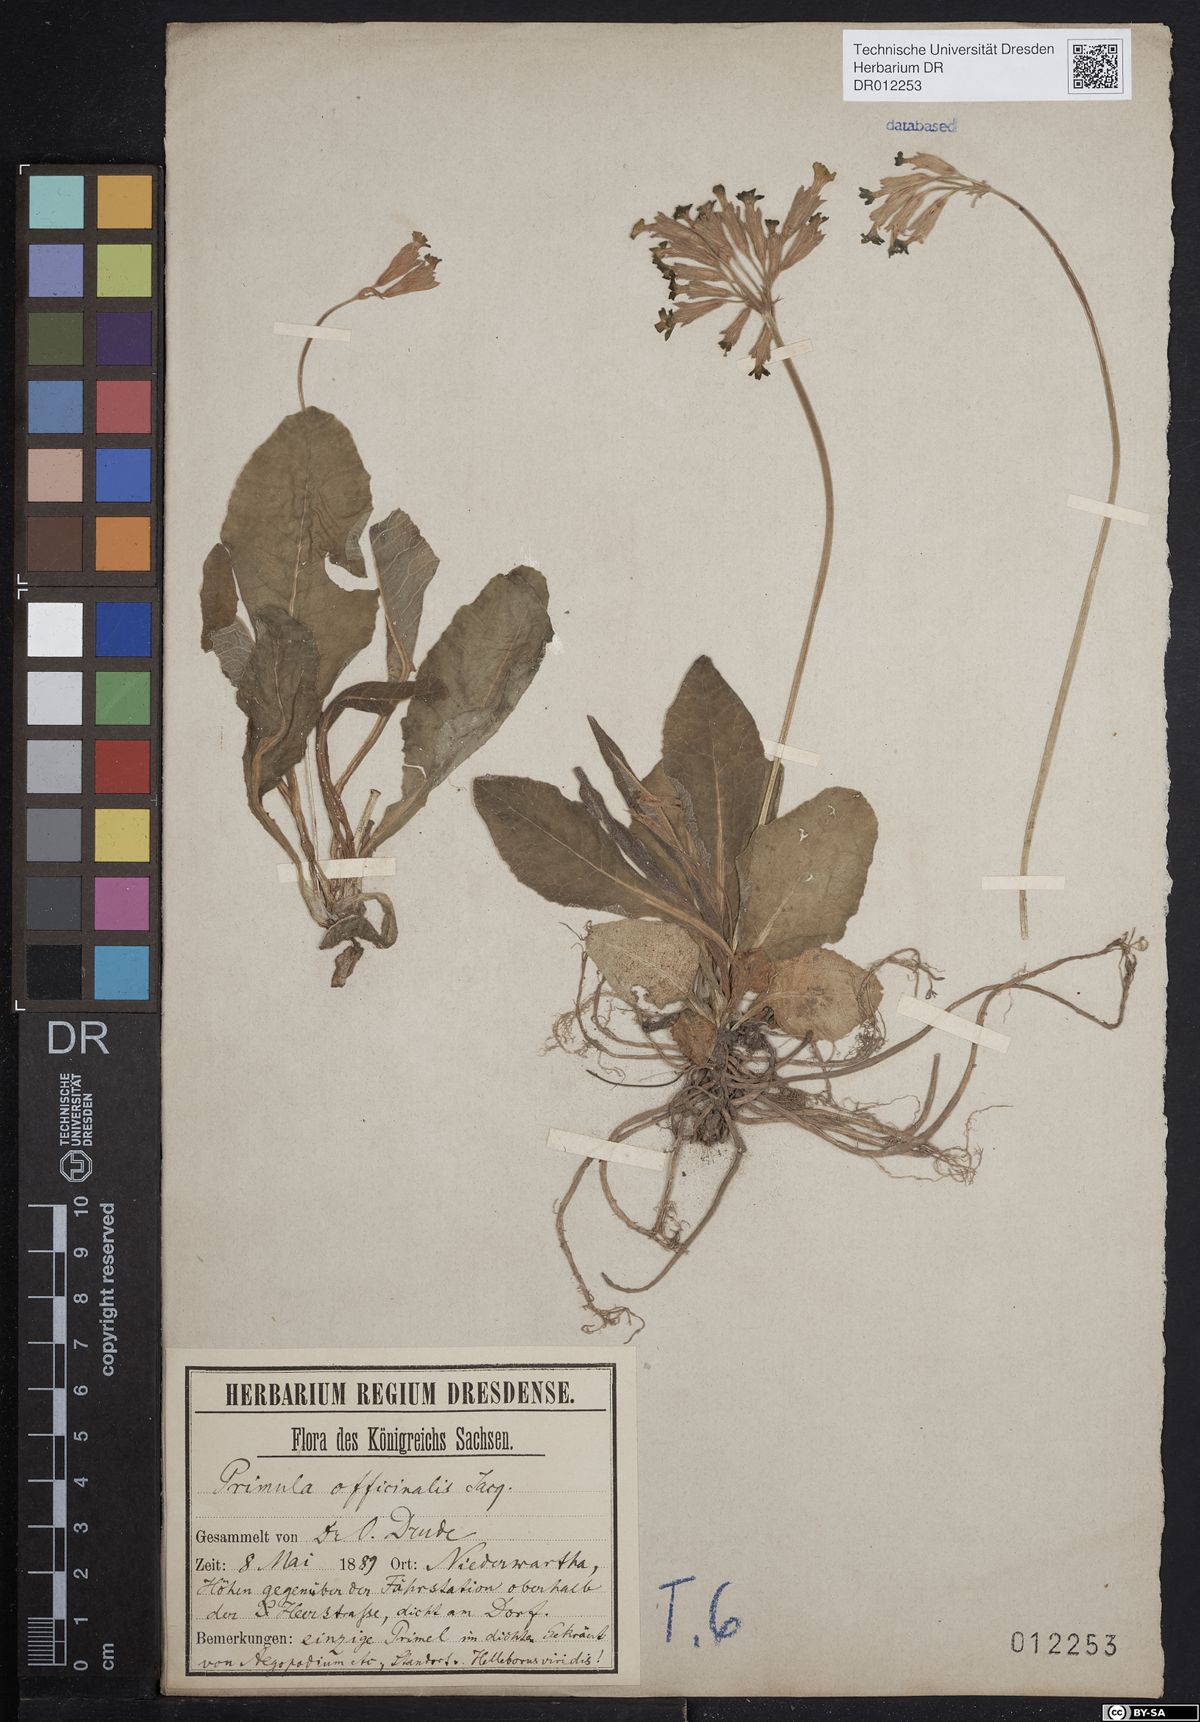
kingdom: Plantae
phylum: Tracheophyta
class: Magnoliopsida
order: Ericales
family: Primulaceae
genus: Primula
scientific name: Primula veris
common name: Cowslip
